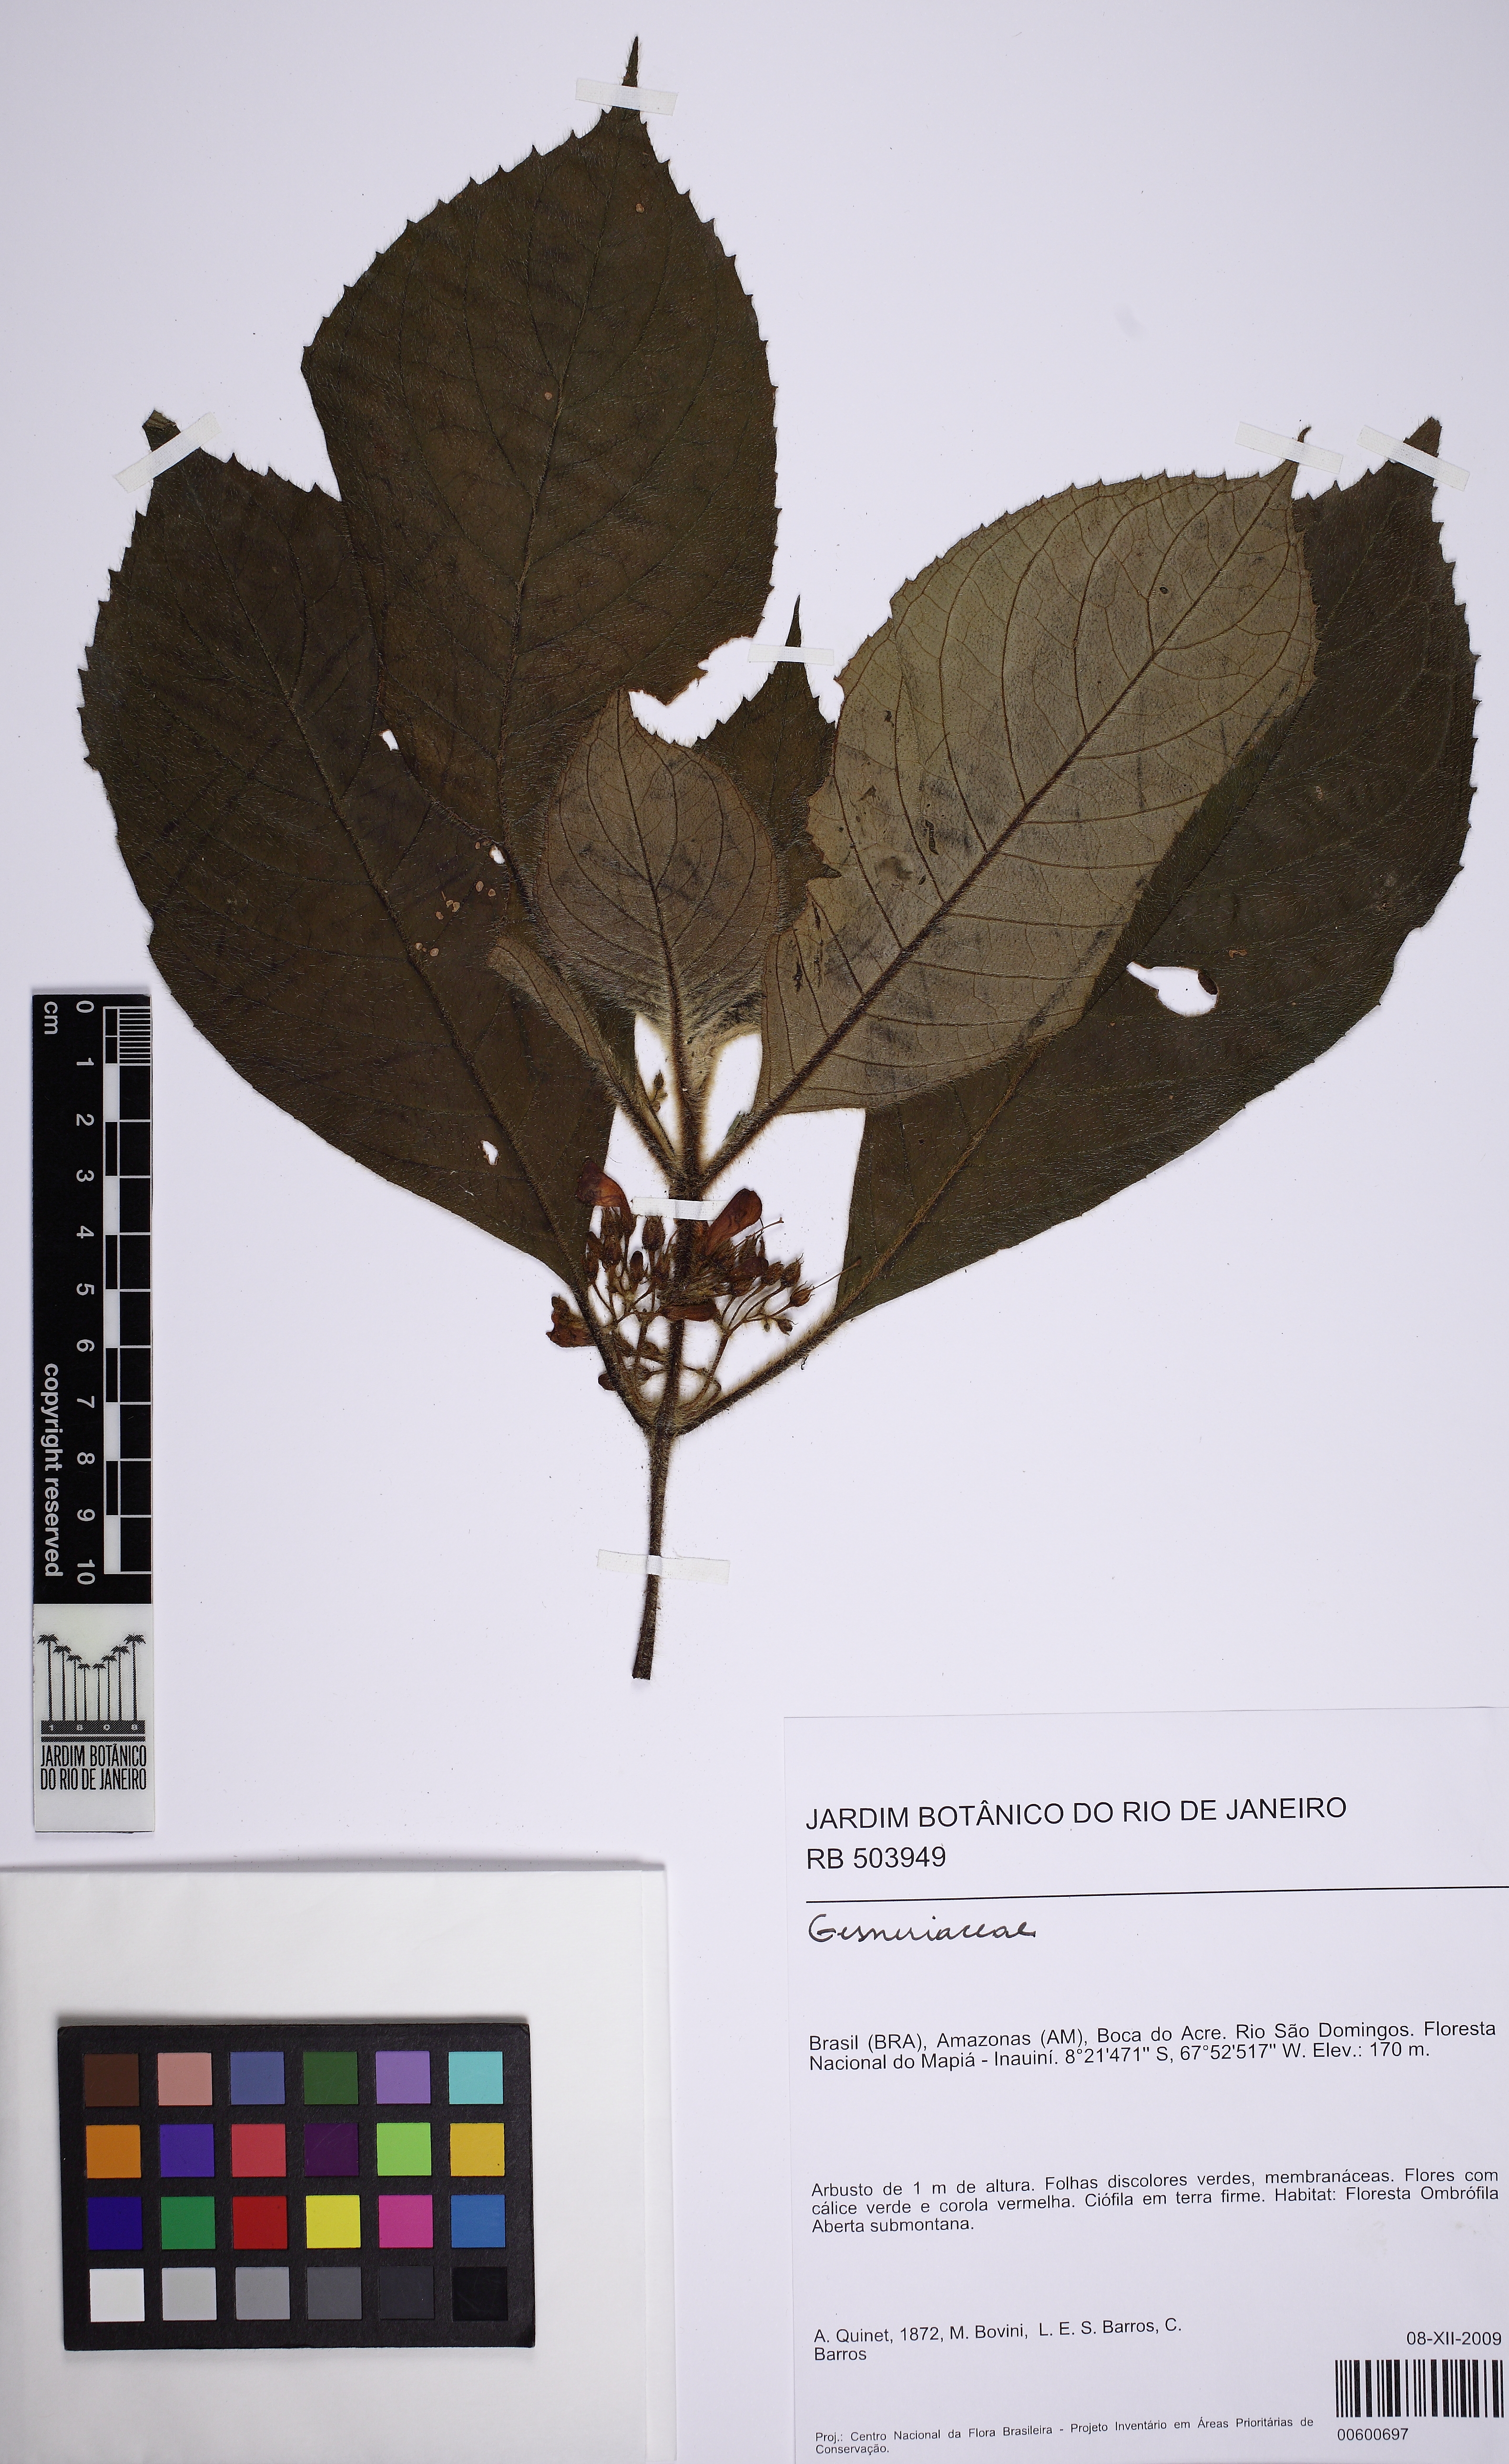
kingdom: Plantae
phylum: Tracheophyta
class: Magnoliopsida
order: Lamiales
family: Gesneriaceae
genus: Besleria
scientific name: Besleria
